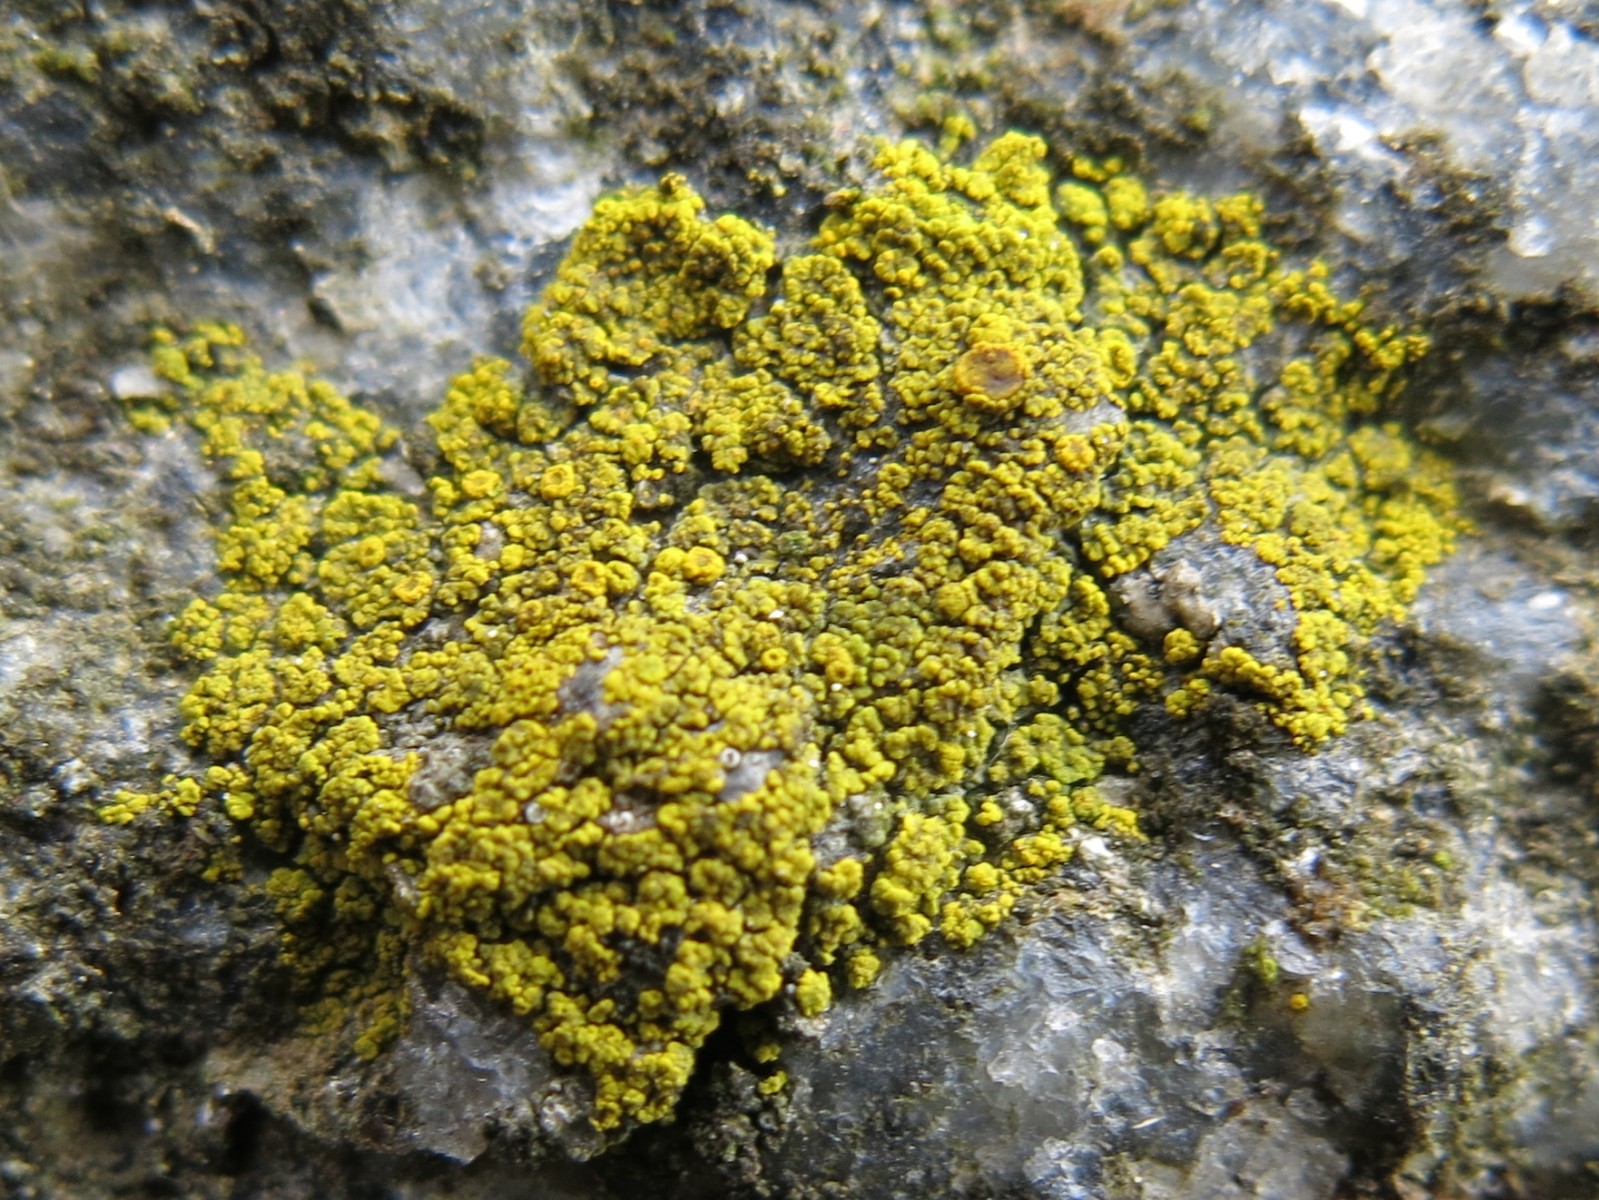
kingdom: Fungi
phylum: Ascomycota
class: Candelariomycetes
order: Candelariales
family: Candelariaceae
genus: Candelariella
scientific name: Candelariella vitellina
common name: almindelig æggeblommelav
